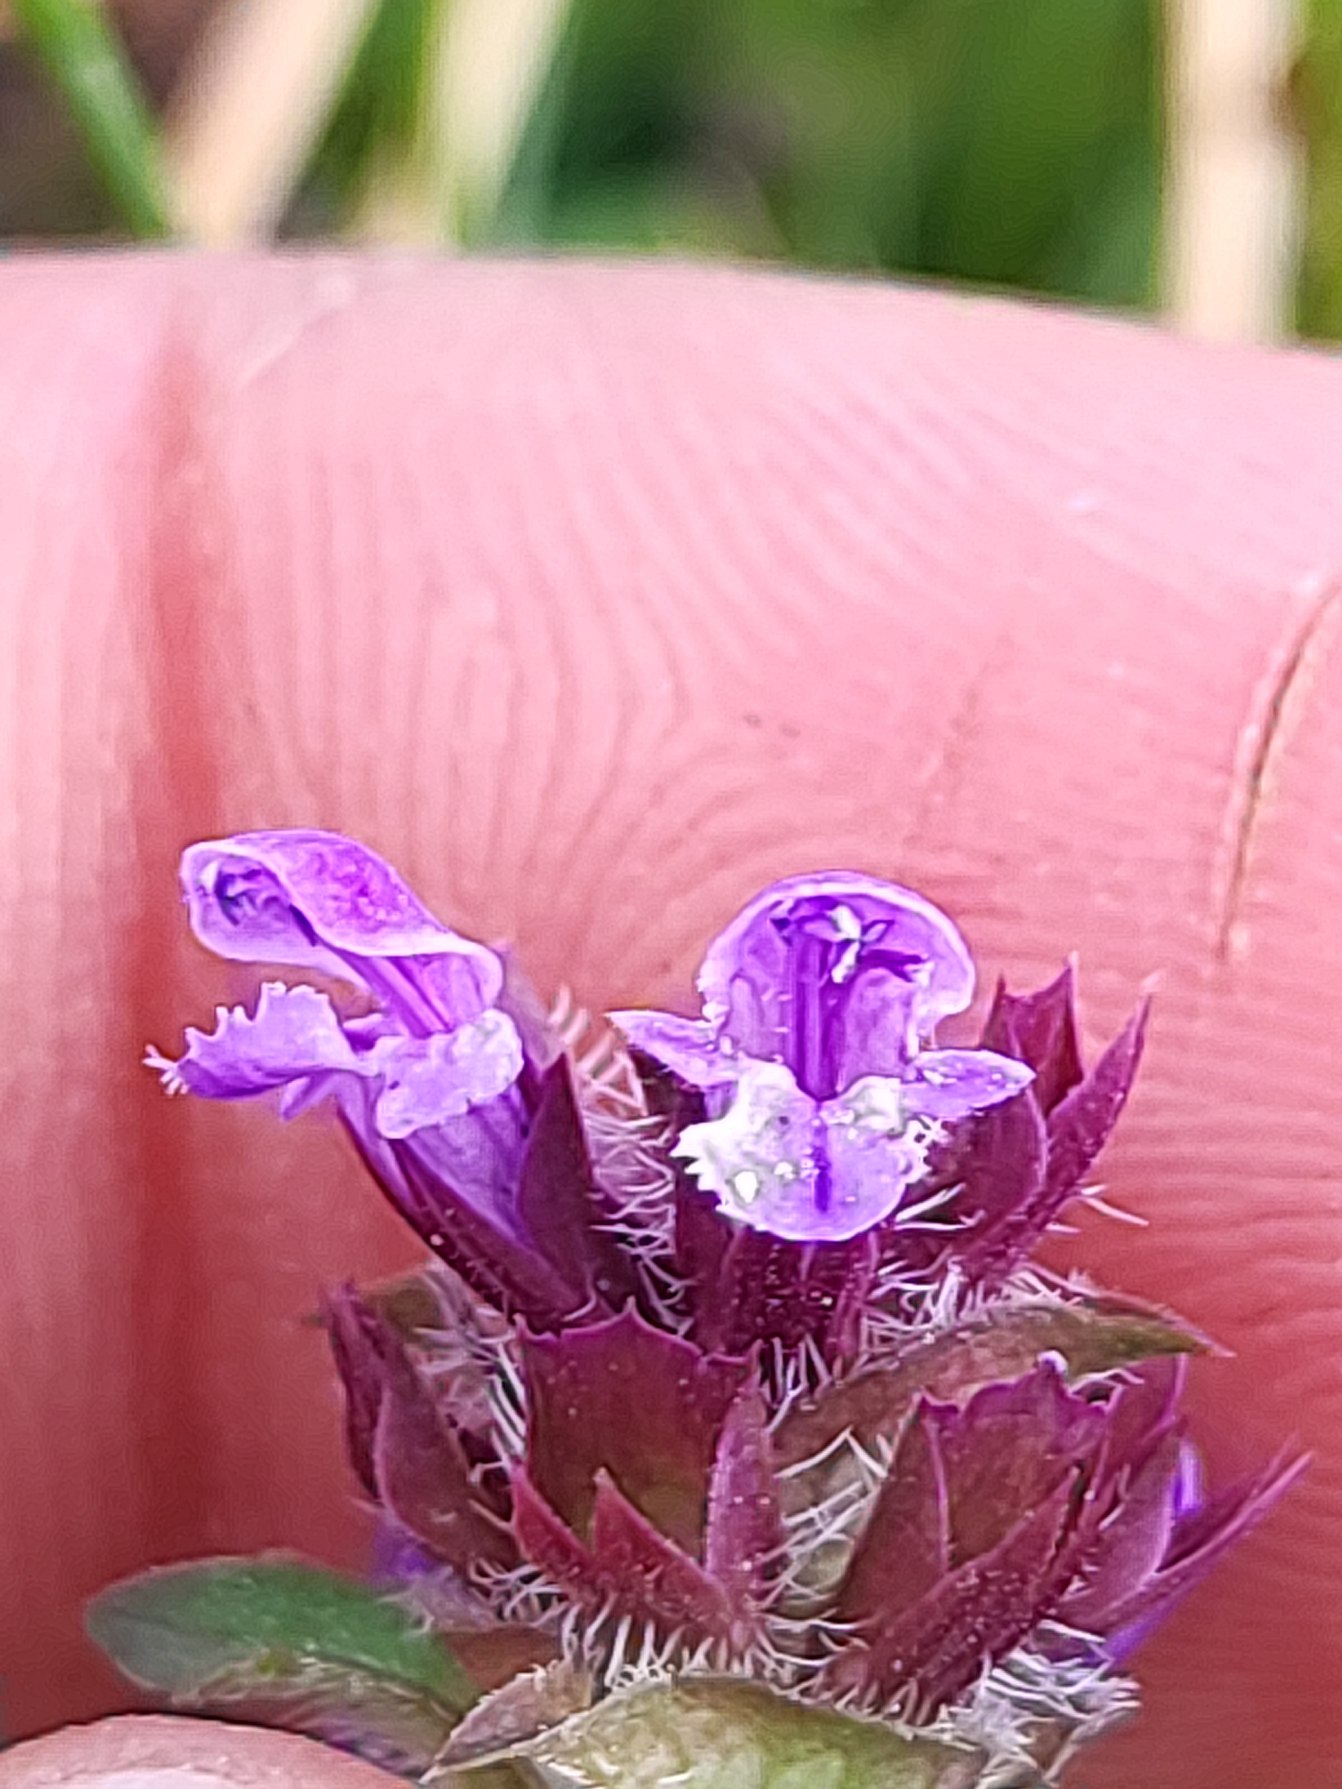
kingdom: Plantae
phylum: Tracheophyta
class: Magnoliopsida
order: Lamiales
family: Lamiaceae
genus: Prunella
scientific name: Prunella vulgaris
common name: Almindelig brunelle
